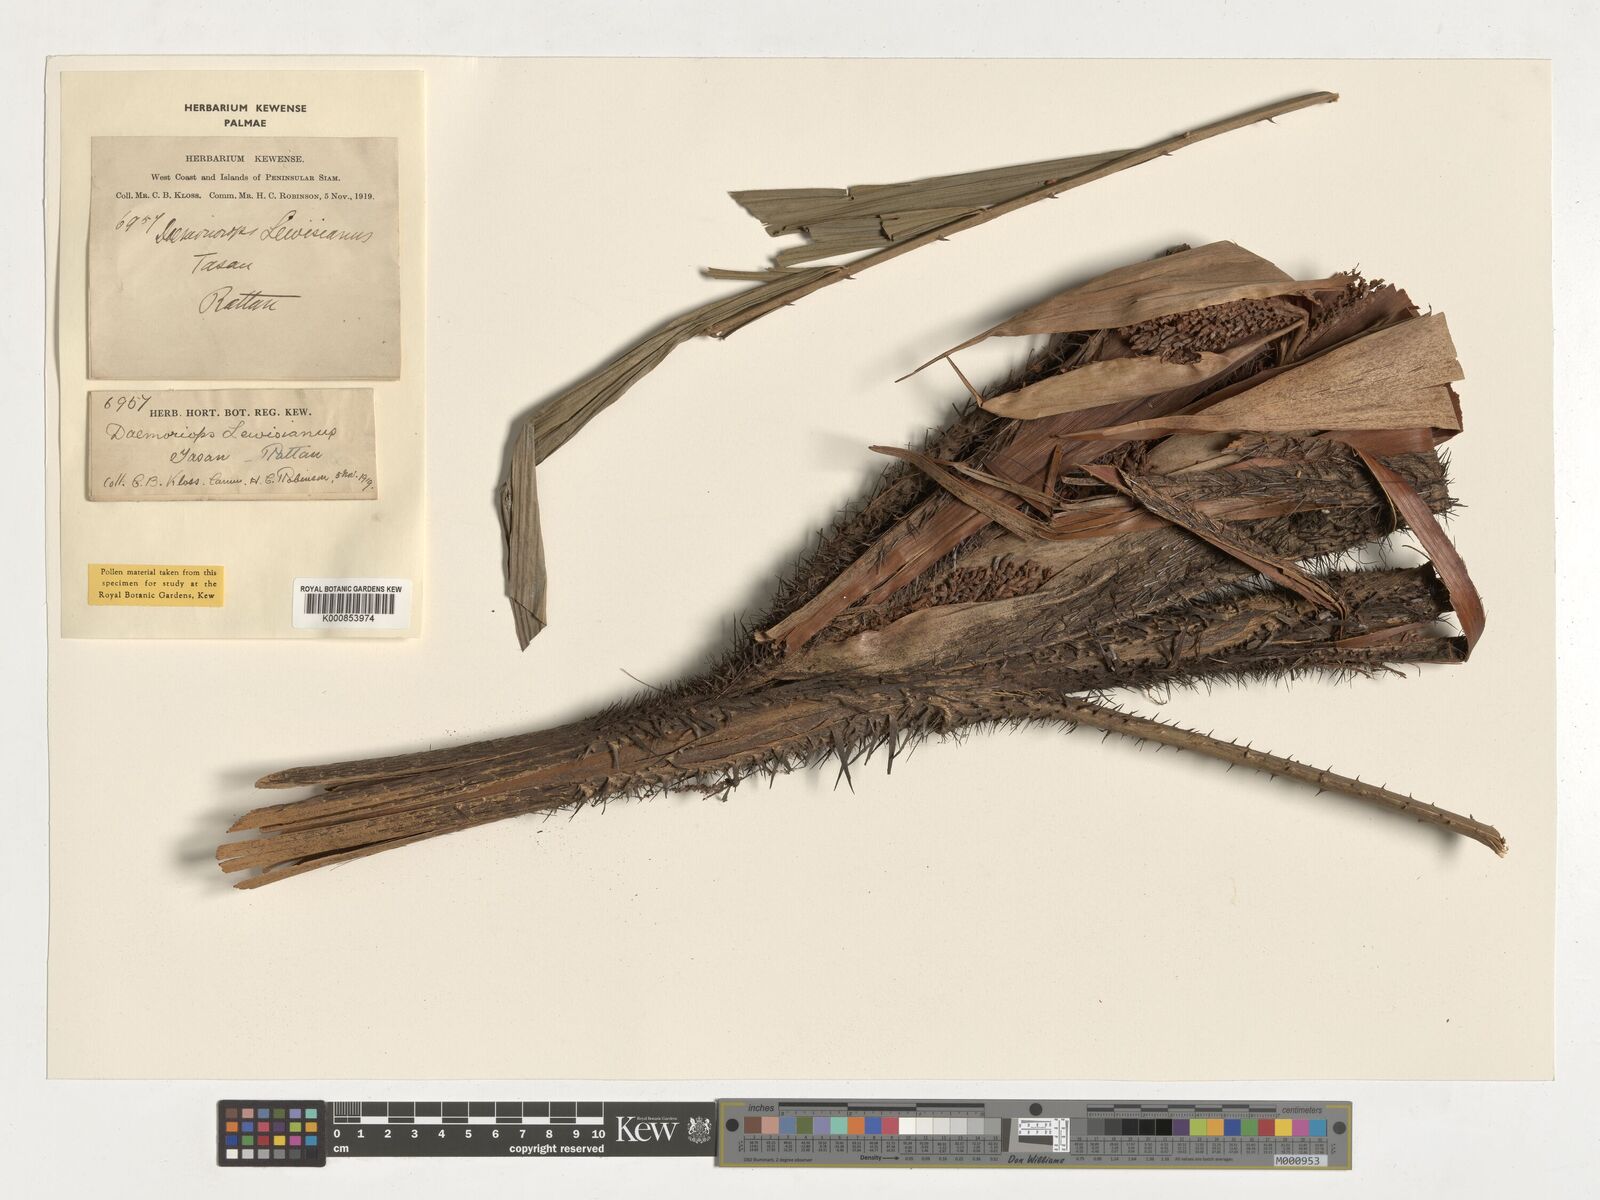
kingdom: Plantae
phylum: Tracheophyta
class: Liliopsida
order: Arecales
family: Arecaceae
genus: Calamus
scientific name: Calamus melanochaetes
